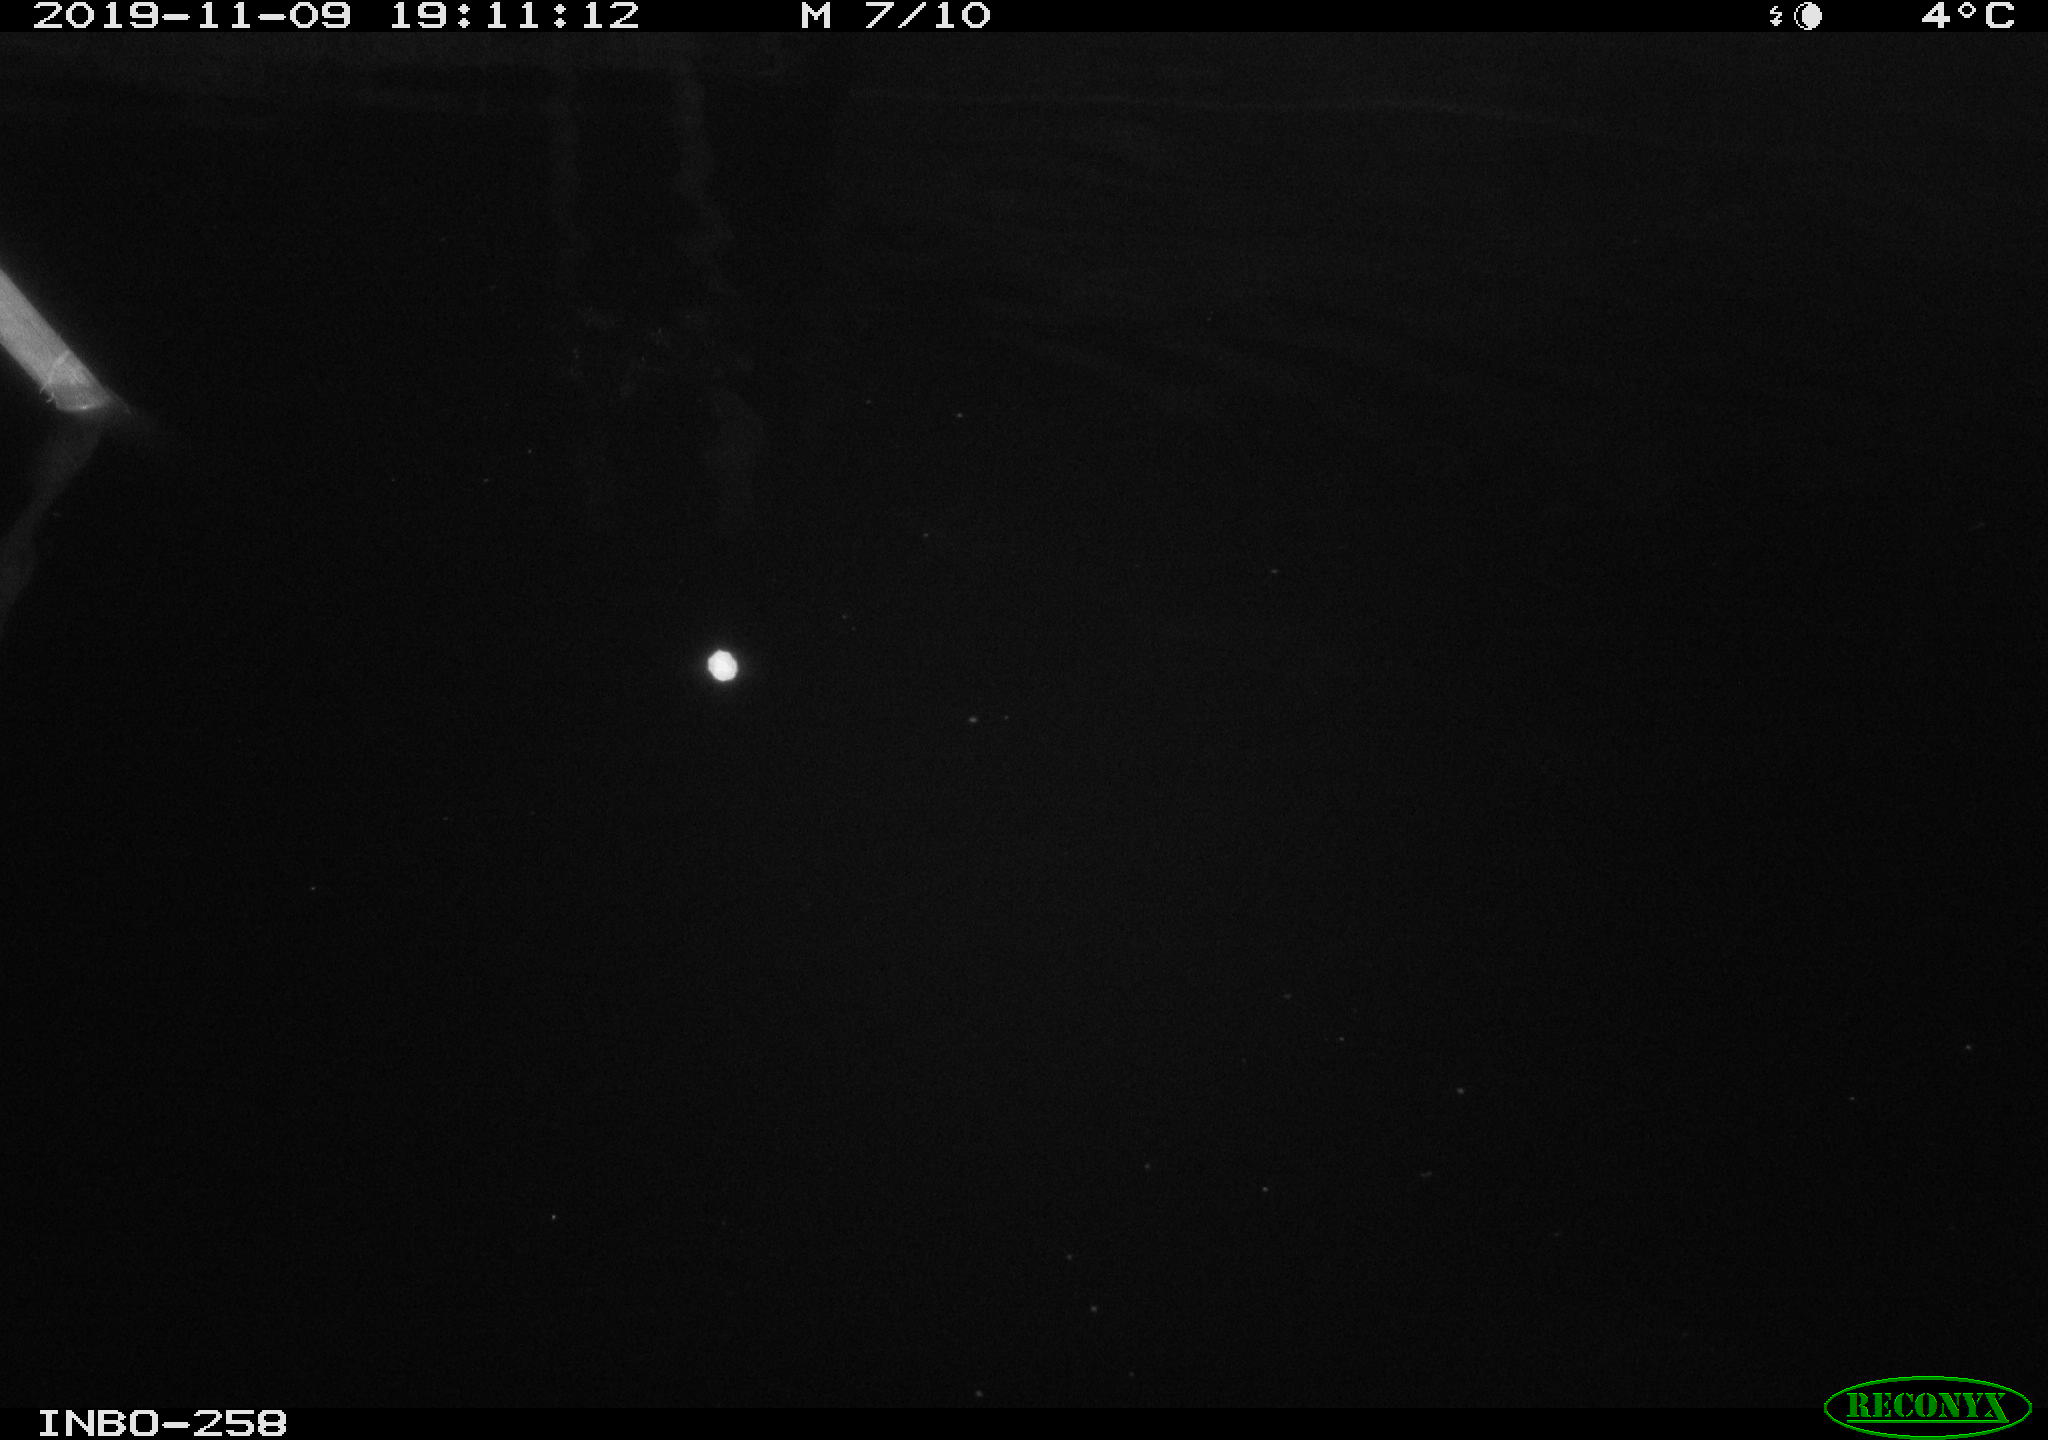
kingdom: Animalia
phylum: Chordata
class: Aves
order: Anseriformes
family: Anatidae
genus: Anas
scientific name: Anas platyrhynchos
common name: Mallard
